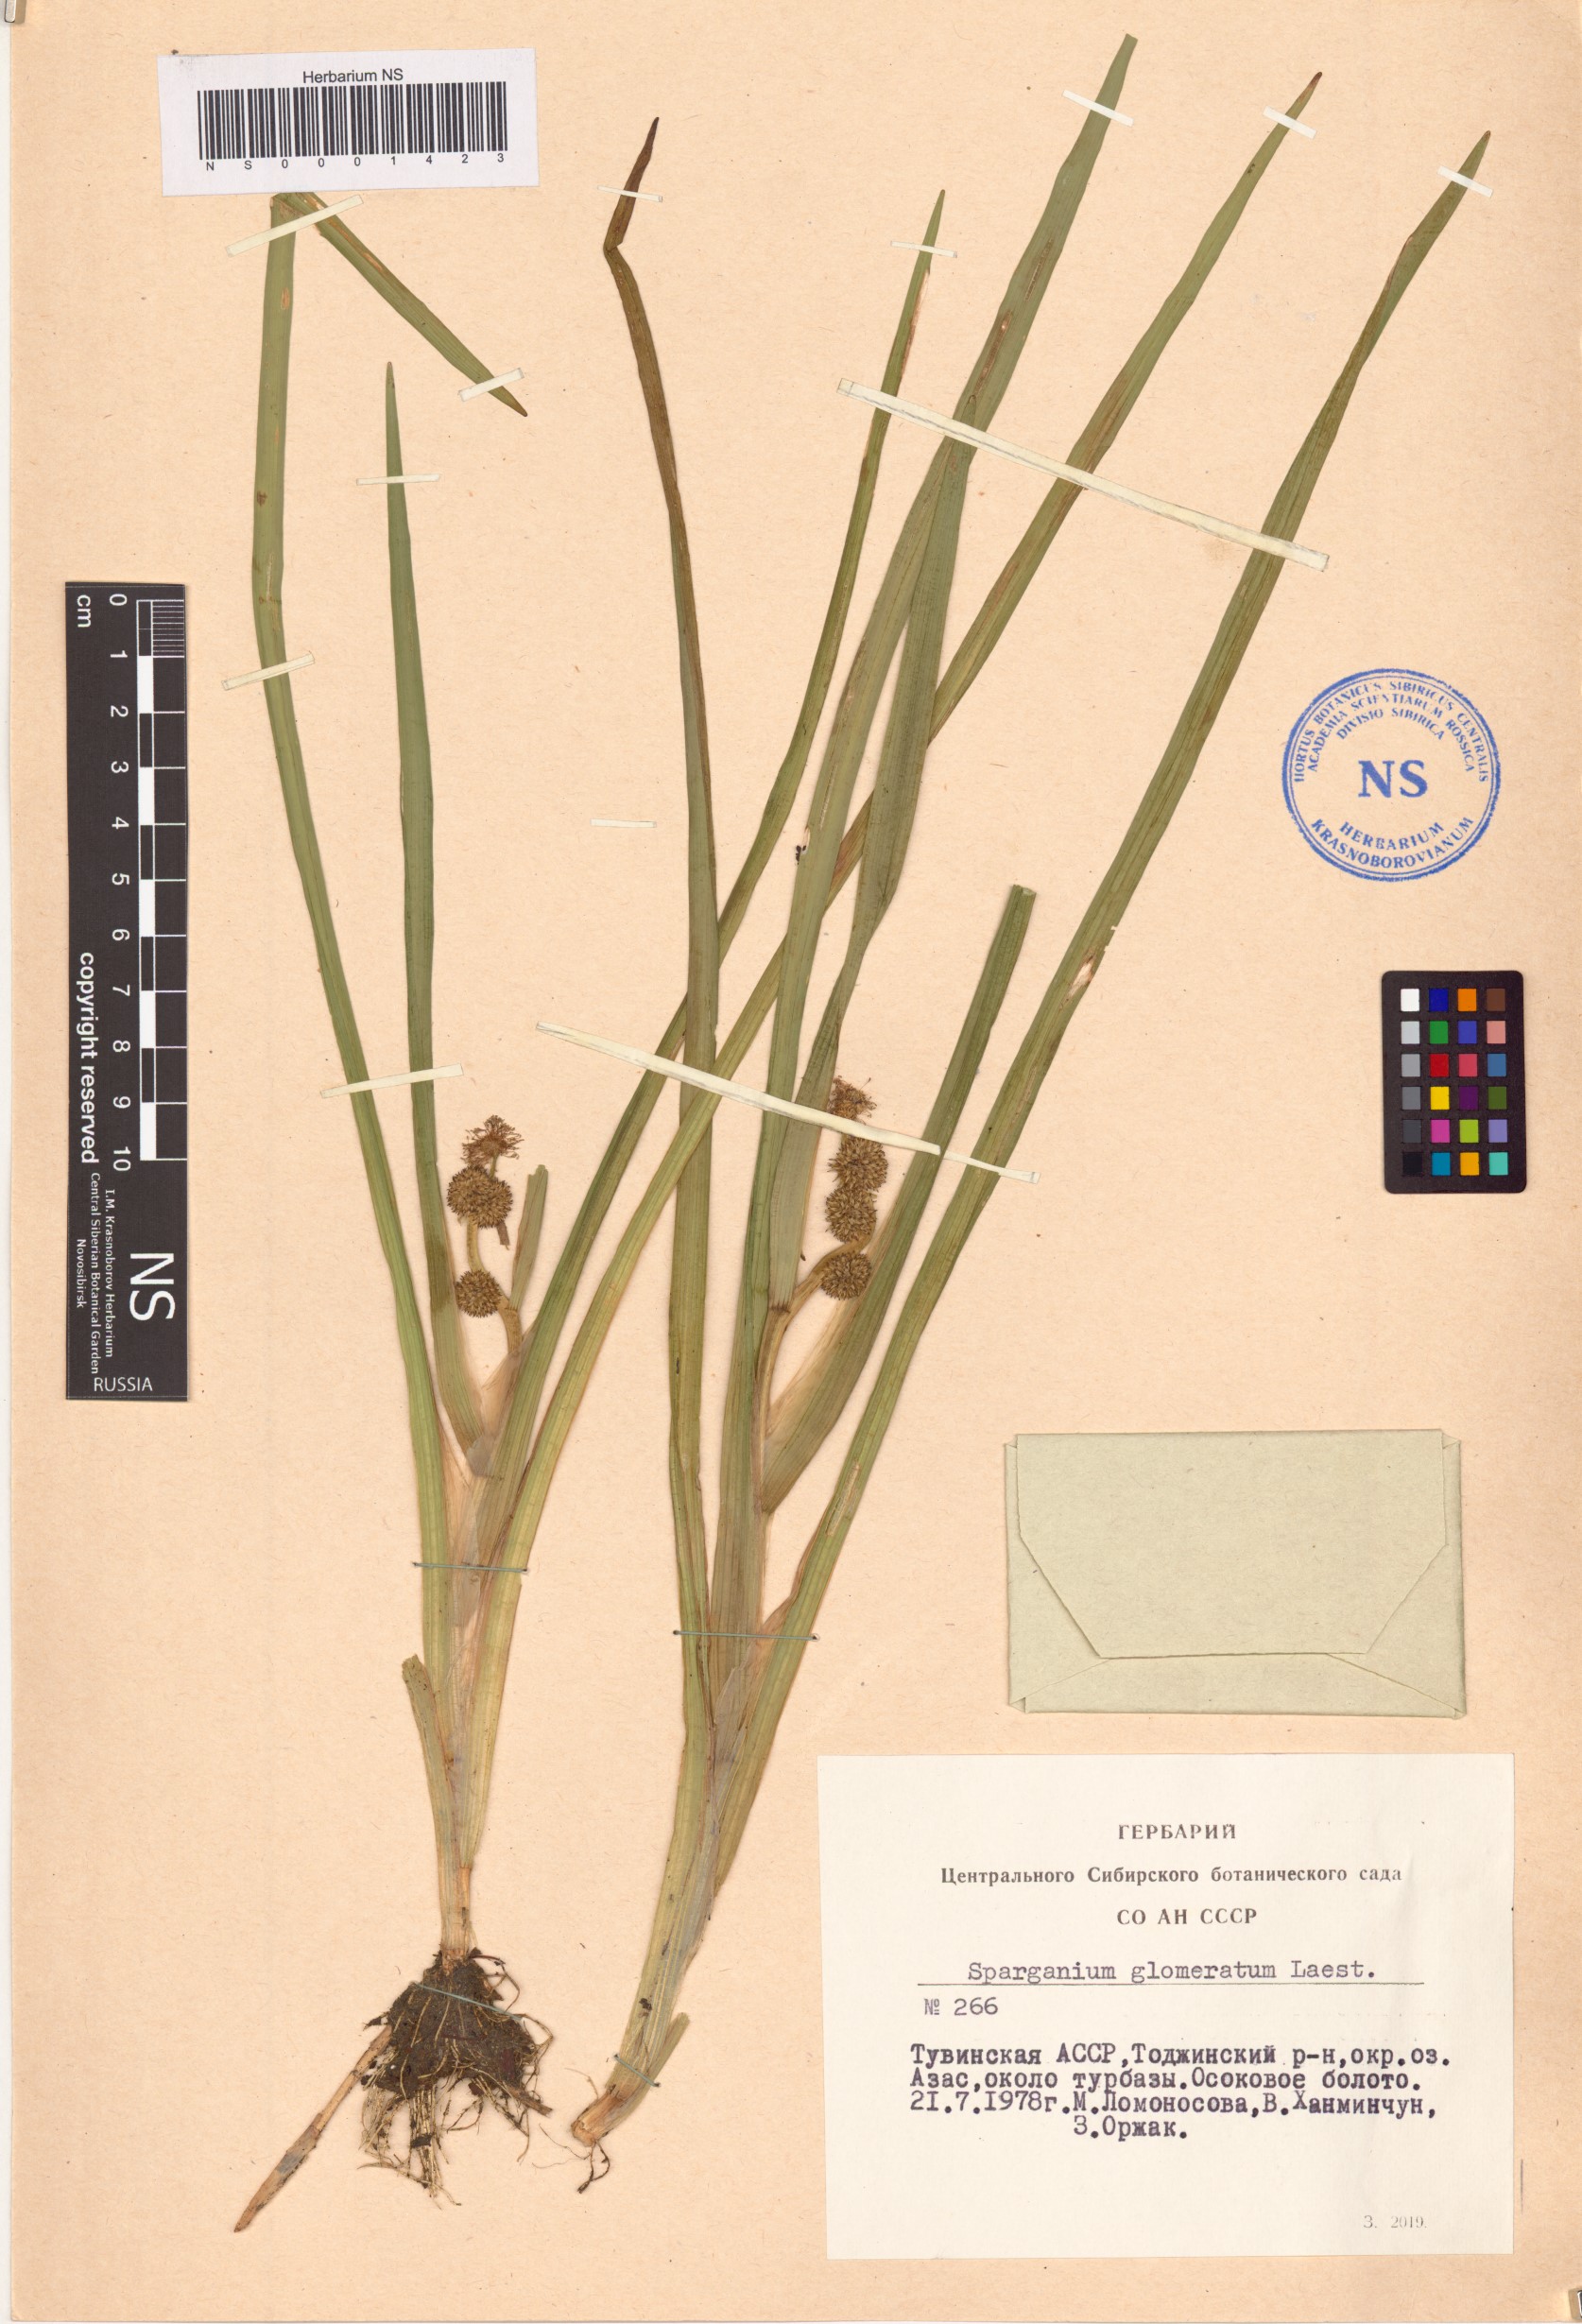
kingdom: Plantae
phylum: Tracheophyta
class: Liliopsida
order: Poales
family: Typhaceae
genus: Sparganium
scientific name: Sparganium glomeratum
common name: Clustered burreed
